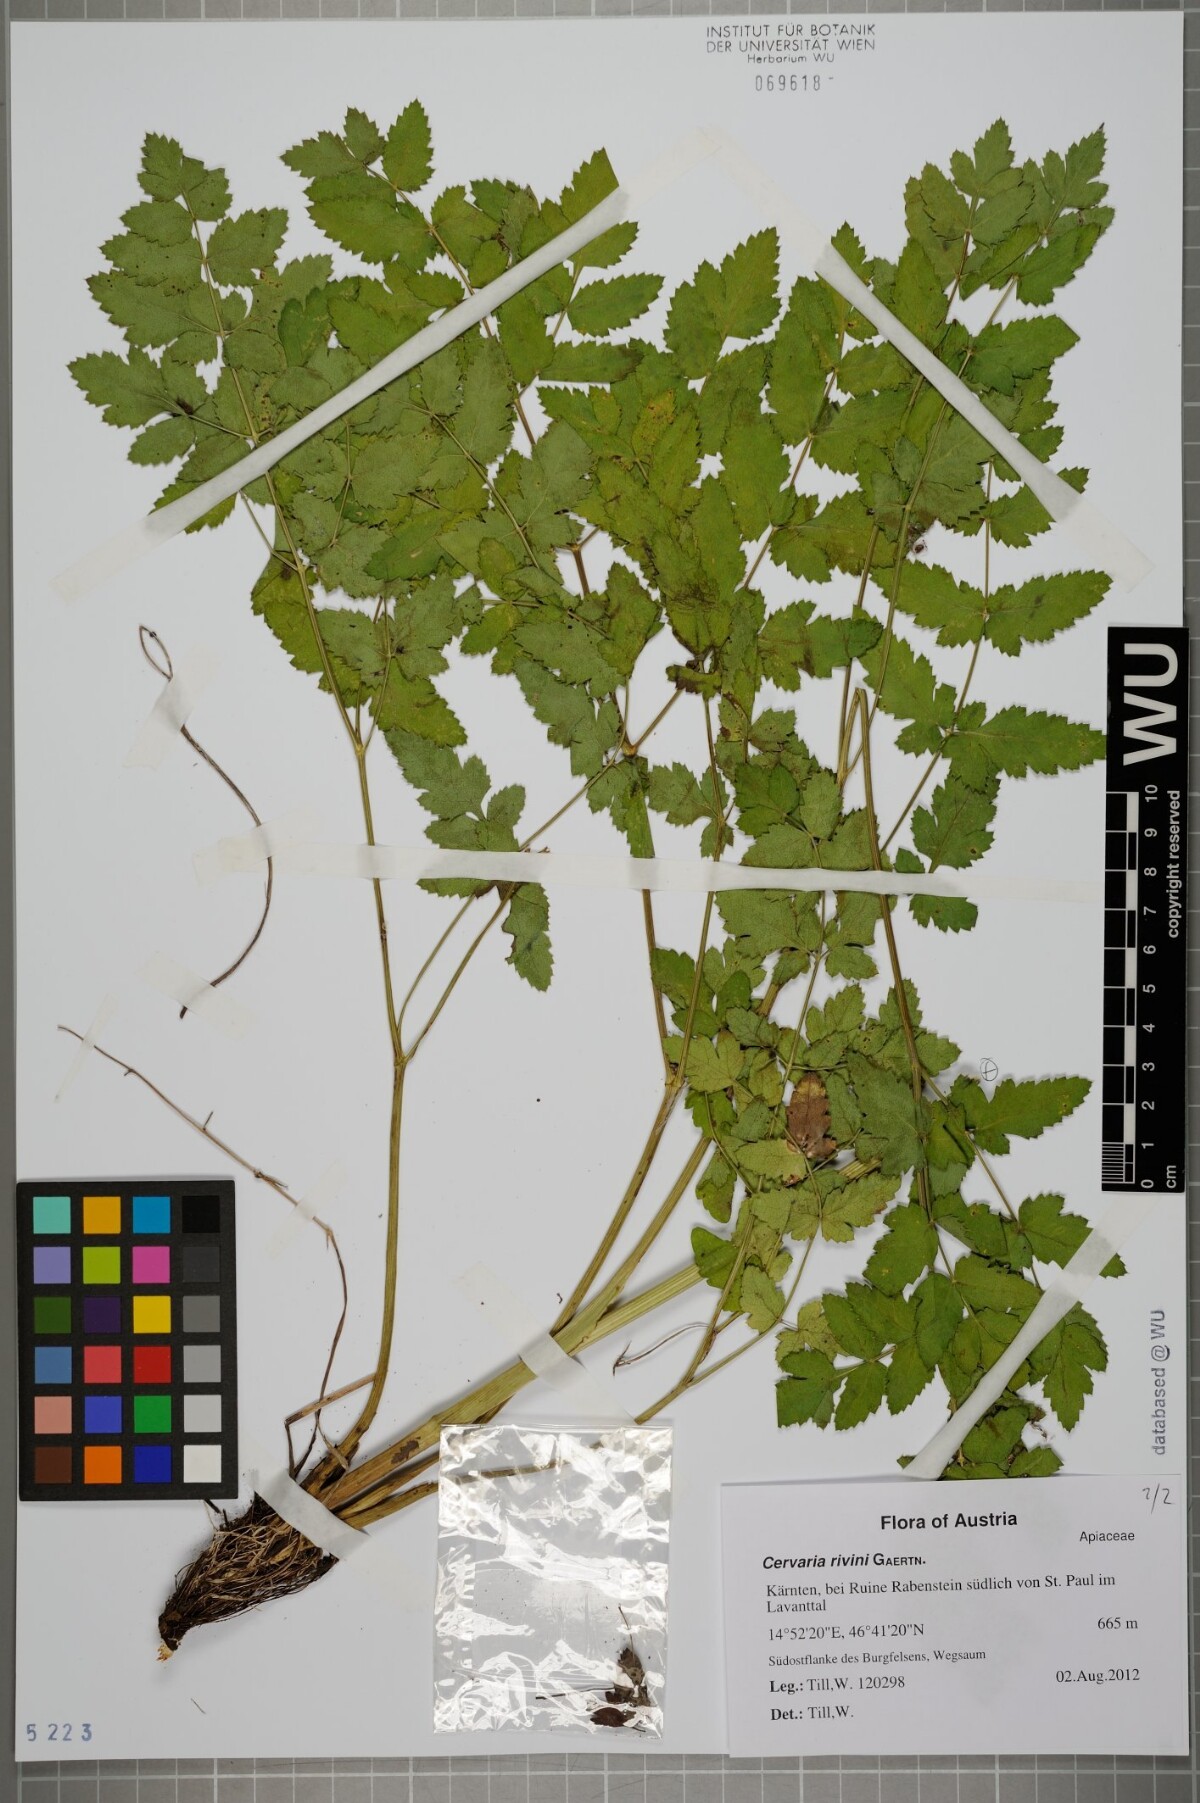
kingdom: Plantae
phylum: Tracheophyta
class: Magnoliopsida
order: Apiales
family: Apiaceae
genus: Cervaria
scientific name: Cervaria rivini
